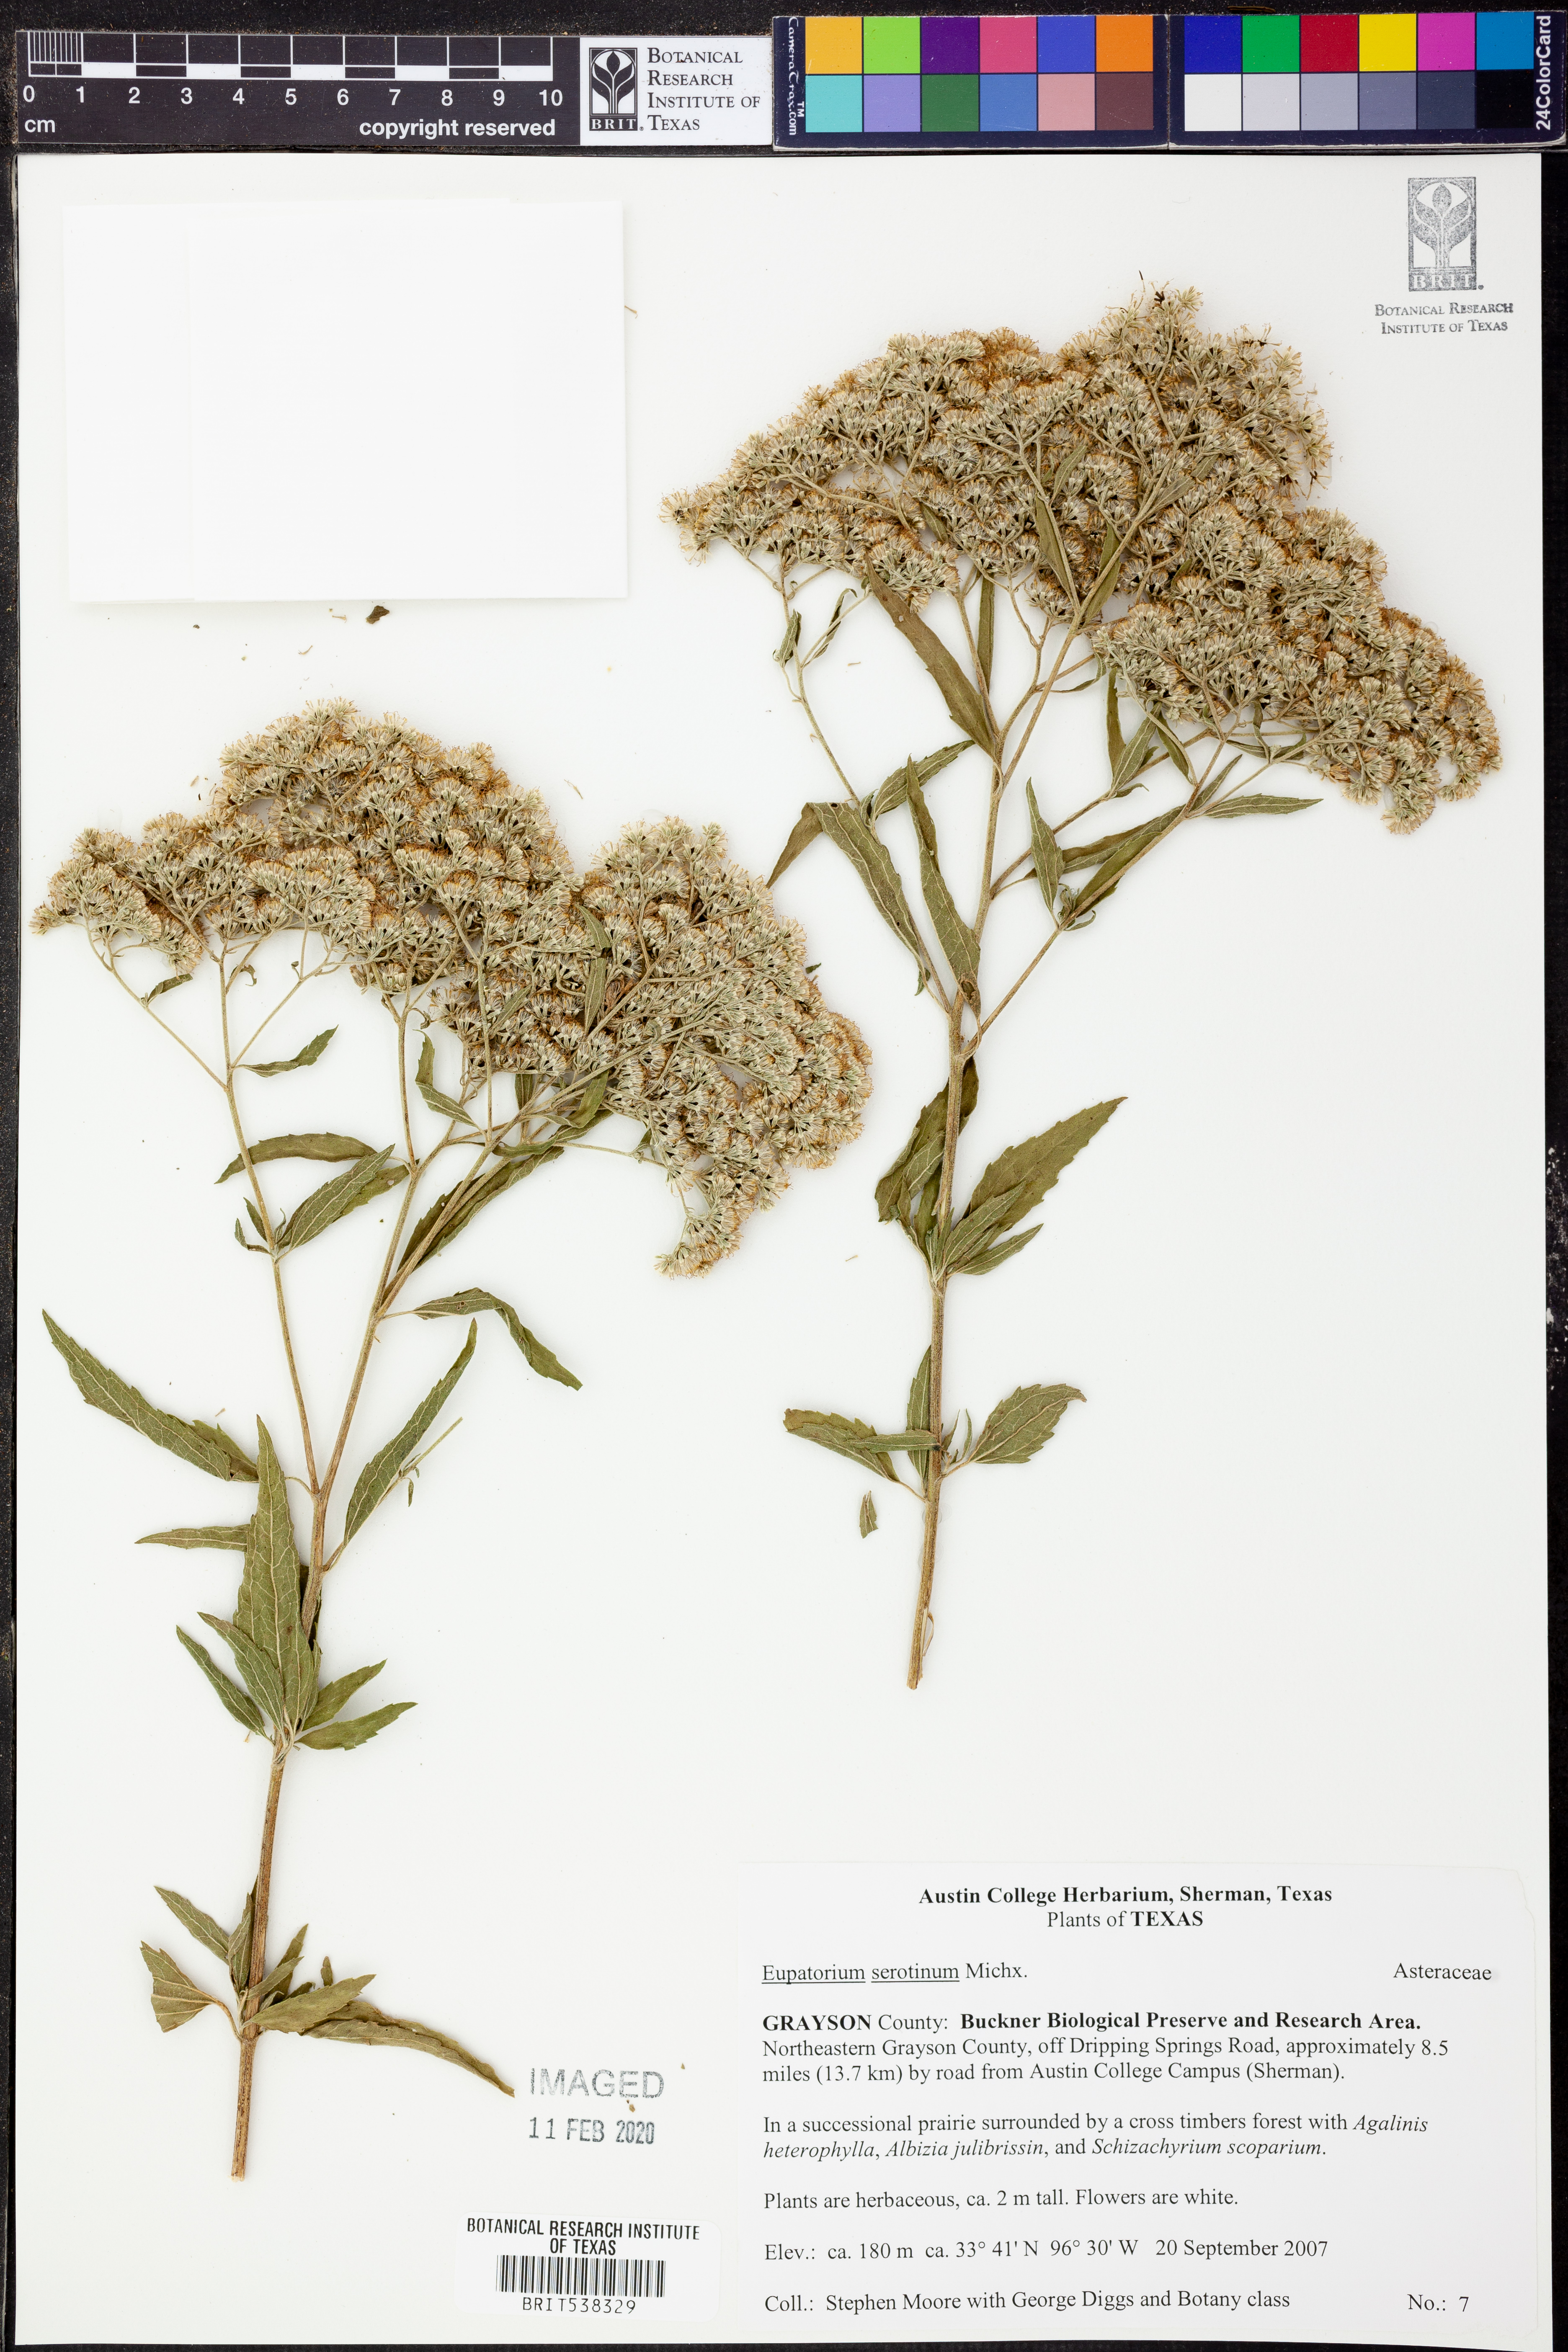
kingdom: Plantae
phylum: Tracheophyta
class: Magnoliopsida
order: Asterales
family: Asteraceae
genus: Eupatorium
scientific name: Eupatorium serotinum
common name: Late boneset
